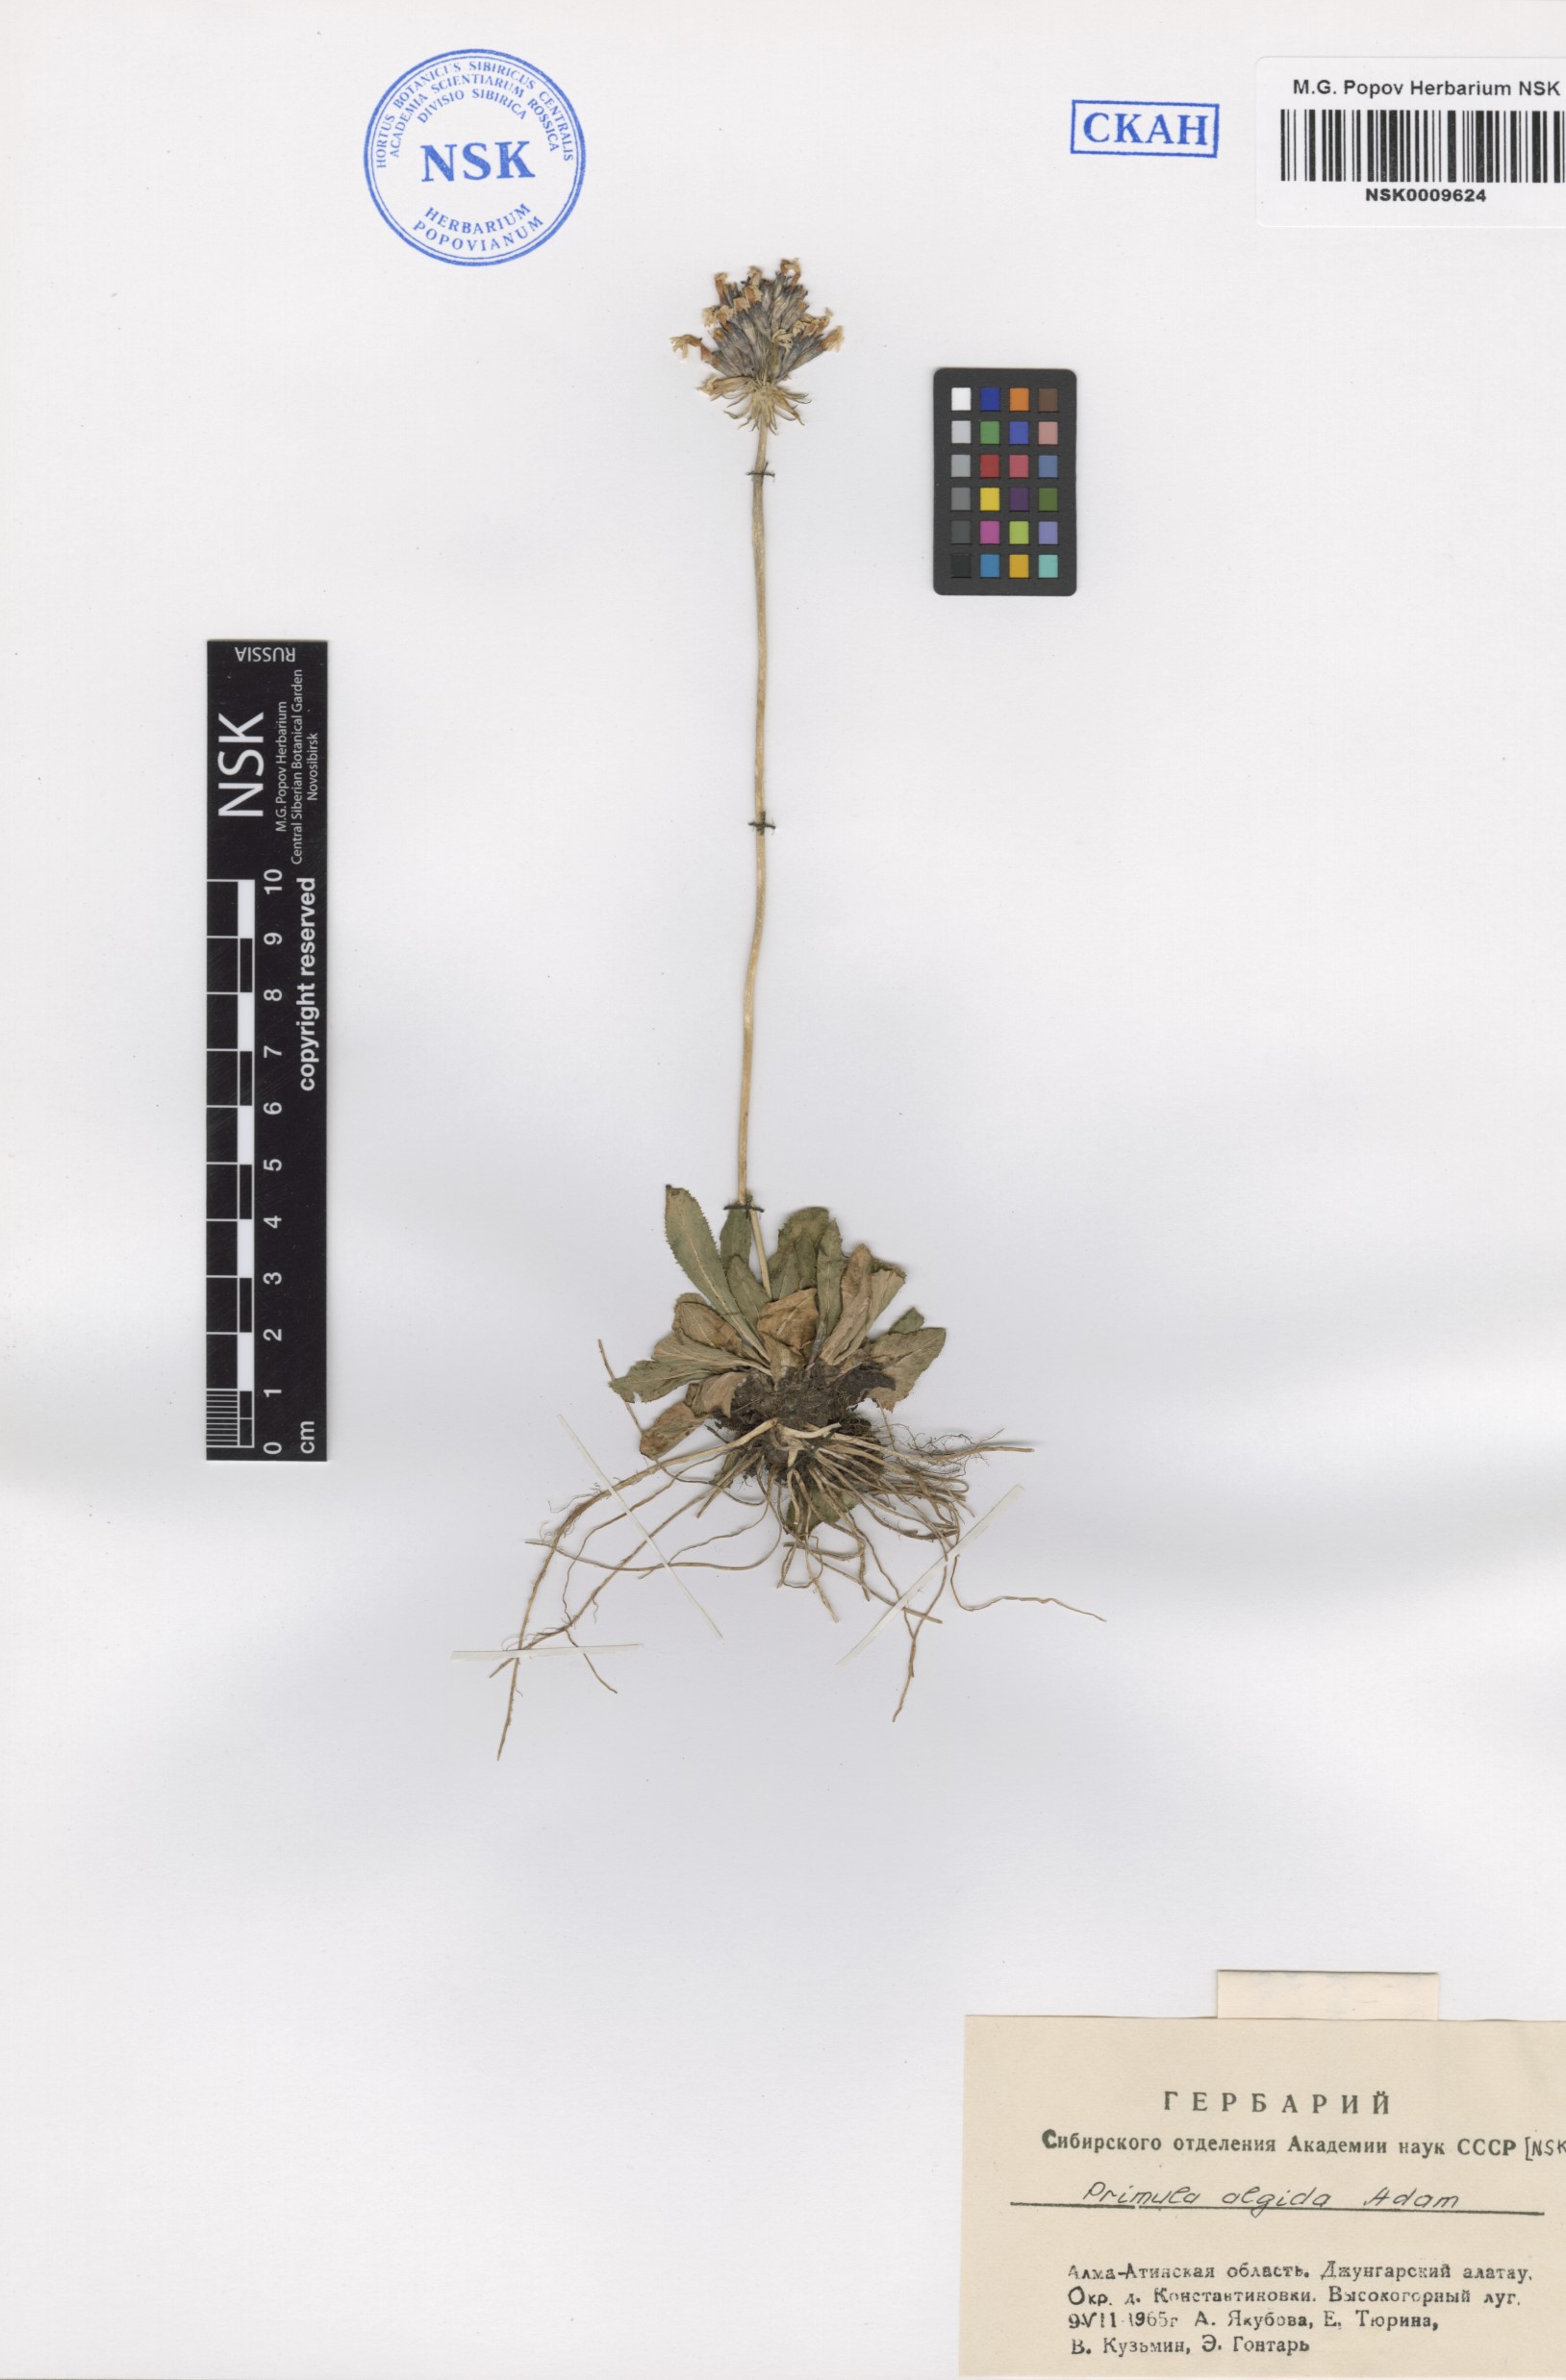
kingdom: Plantae
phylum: Tracheophyta
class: Magnoliopsida
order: Ericales
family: Primulaceae
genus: Primula
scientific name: Primula algida
